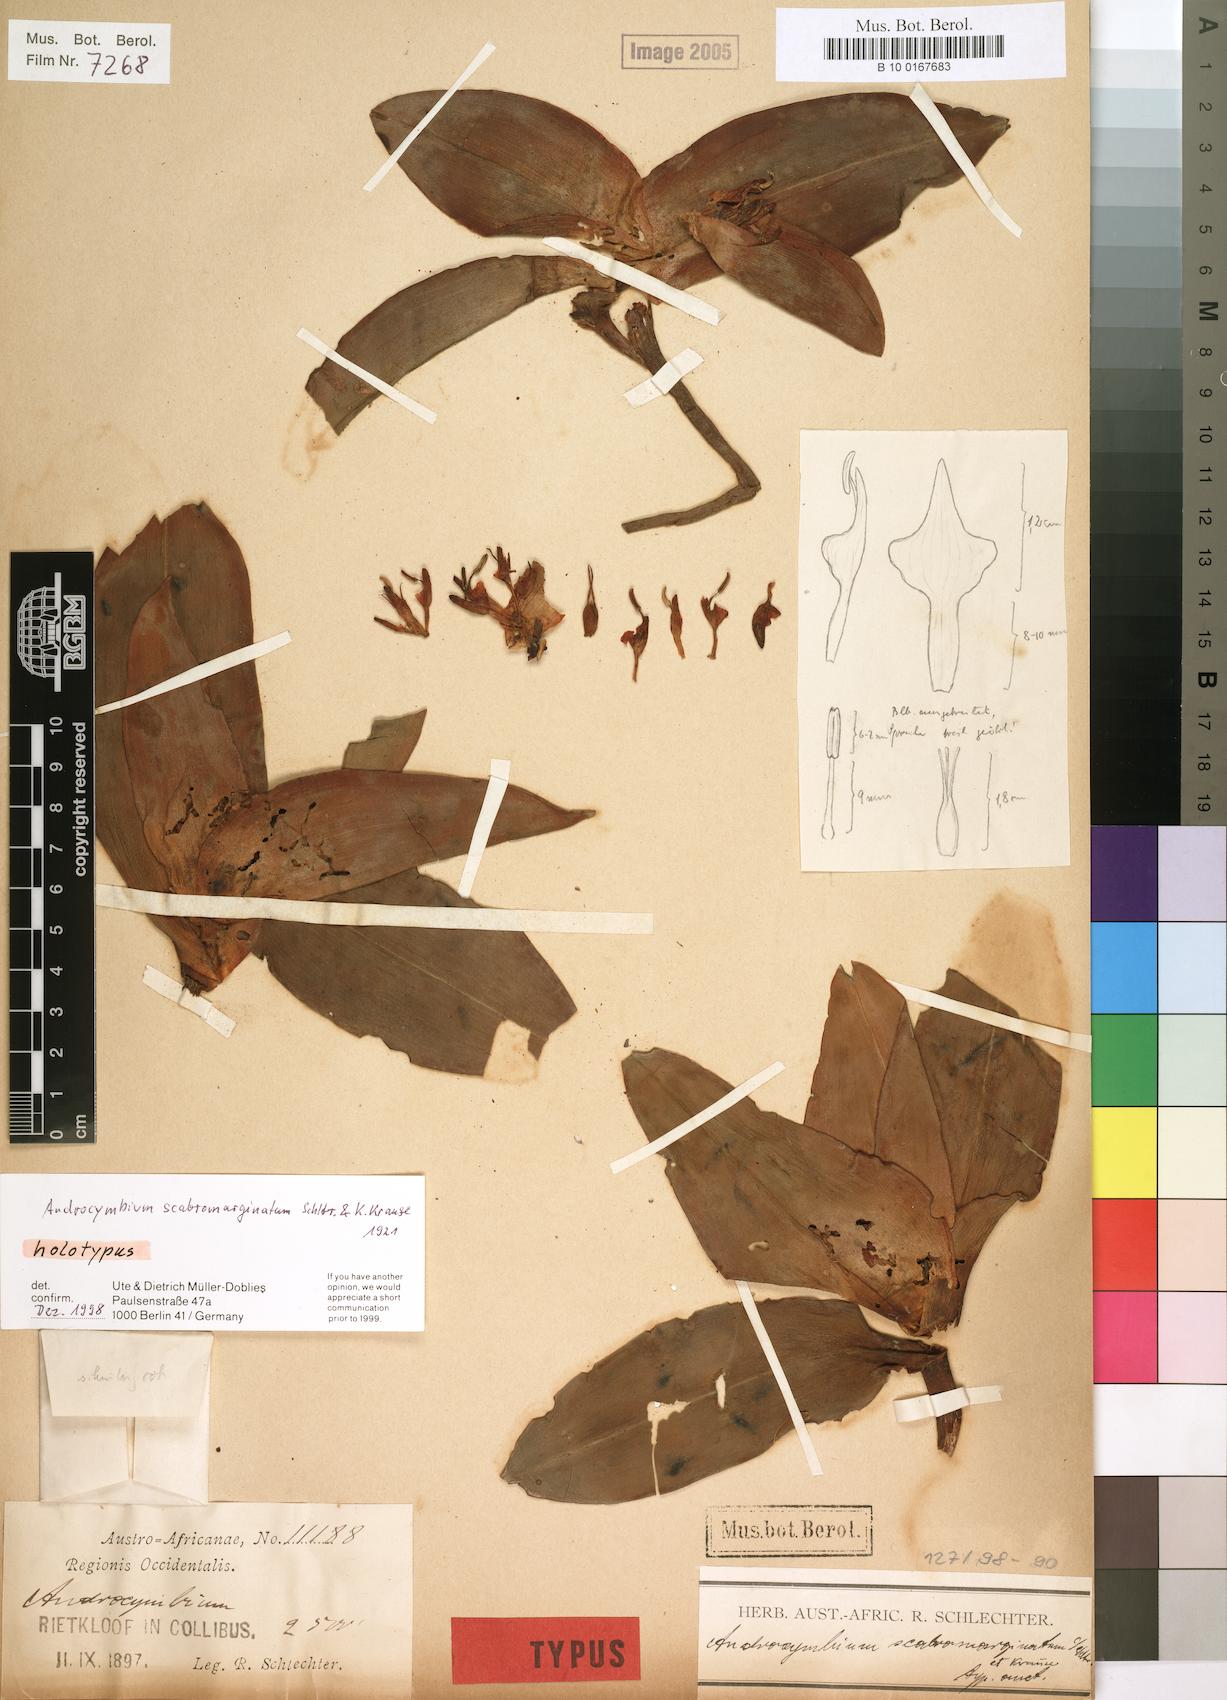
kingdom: Plantae
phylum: Tracheophyta
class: Liliopsida
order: Liliales
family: Colchicaceae
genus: Colchicum
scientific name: Colchicum scabromarginatum
